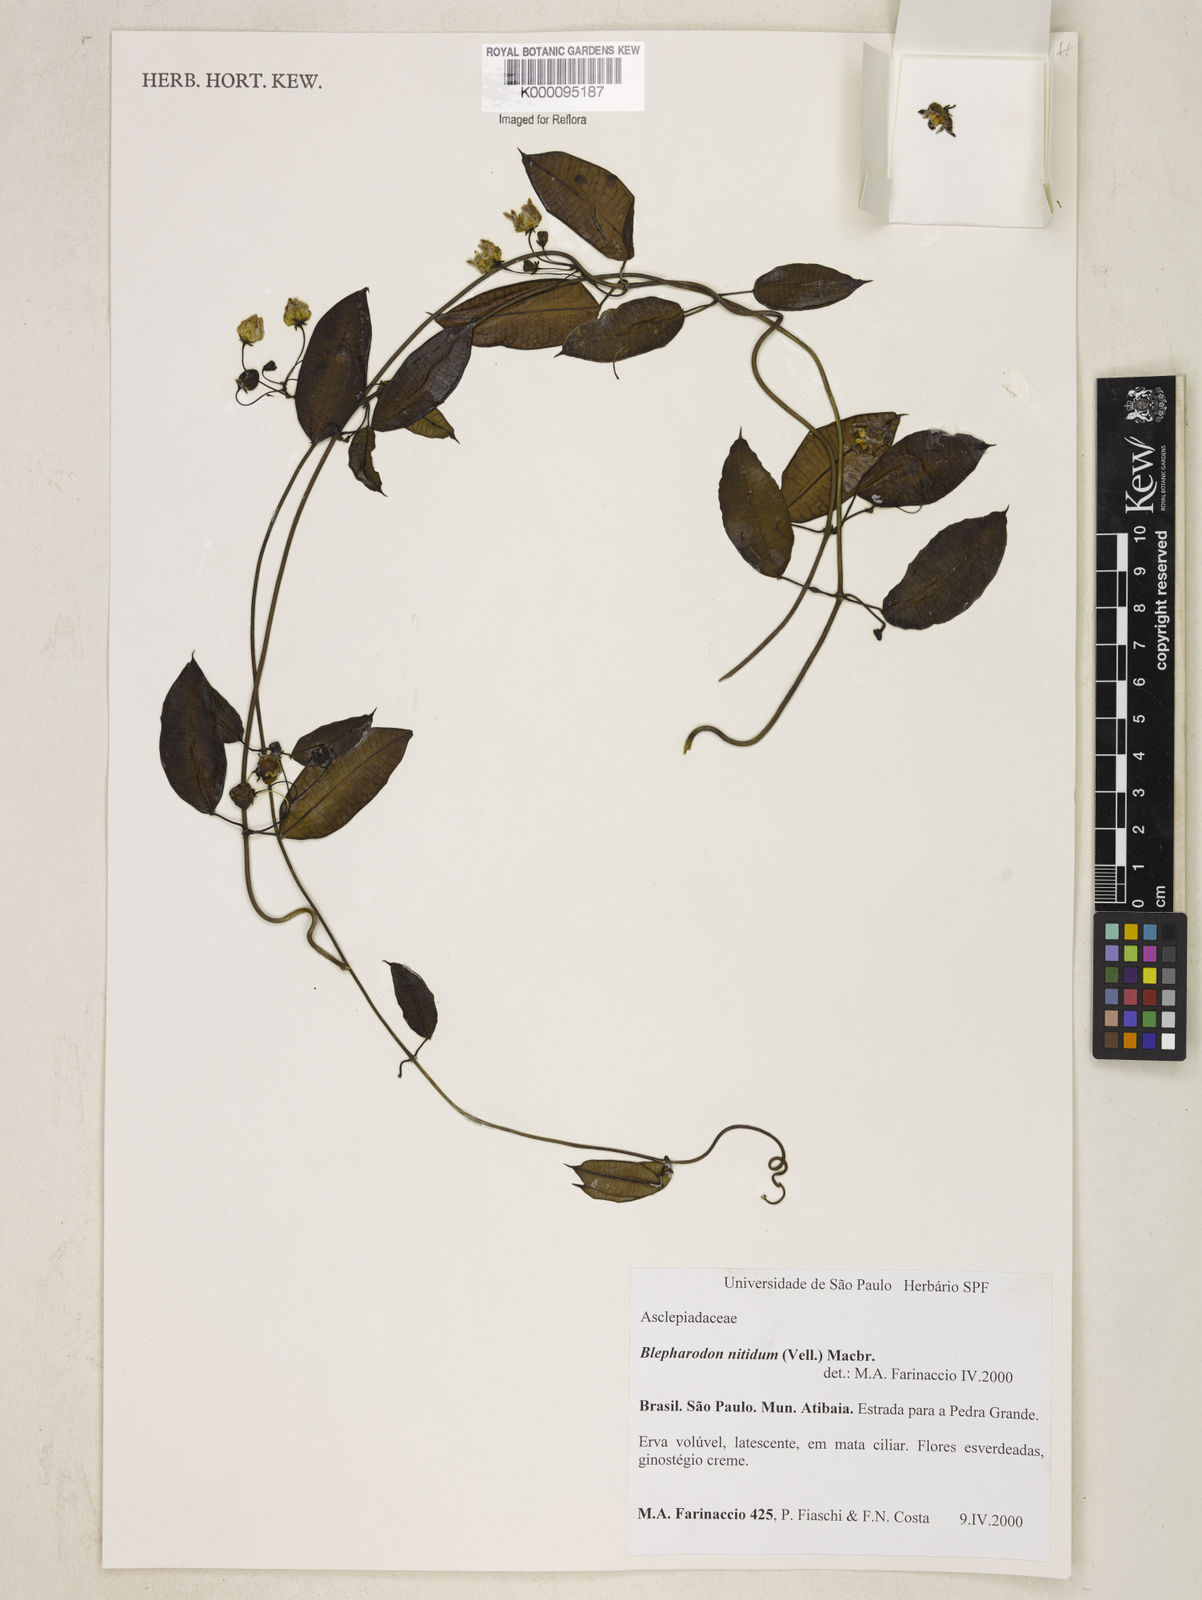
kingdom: Plantae
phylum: Tracheophyta
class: Magnoliopsida
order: Gentianales
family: Apocynaceae
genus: Blepharodon
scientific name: Blepharodon pictum
